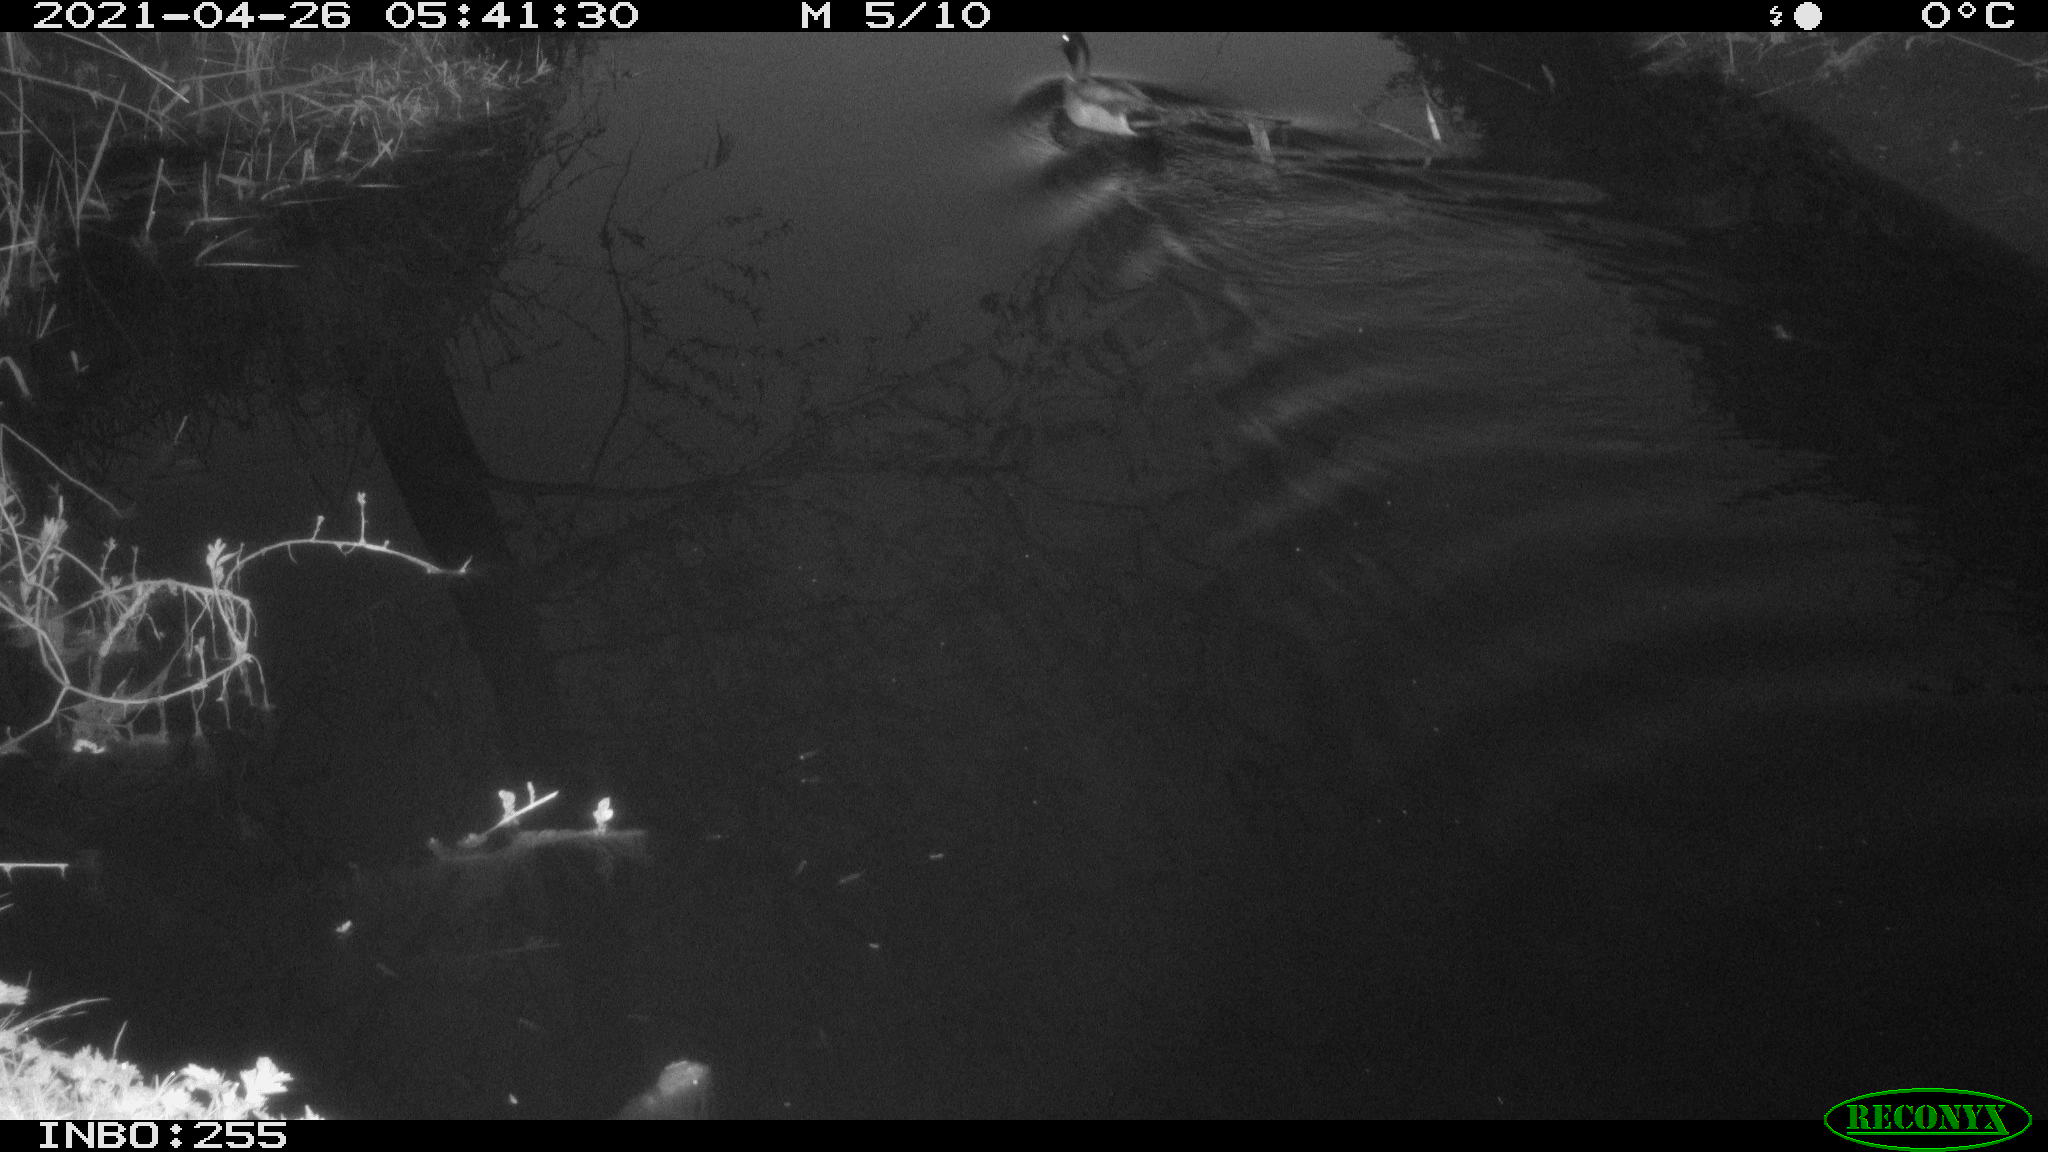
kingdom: Animalia
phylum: Chordata
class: Aves
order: Anseriformes
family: Anatidae
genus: Anas
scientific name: Anas platyrhynchos
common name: Mallard
